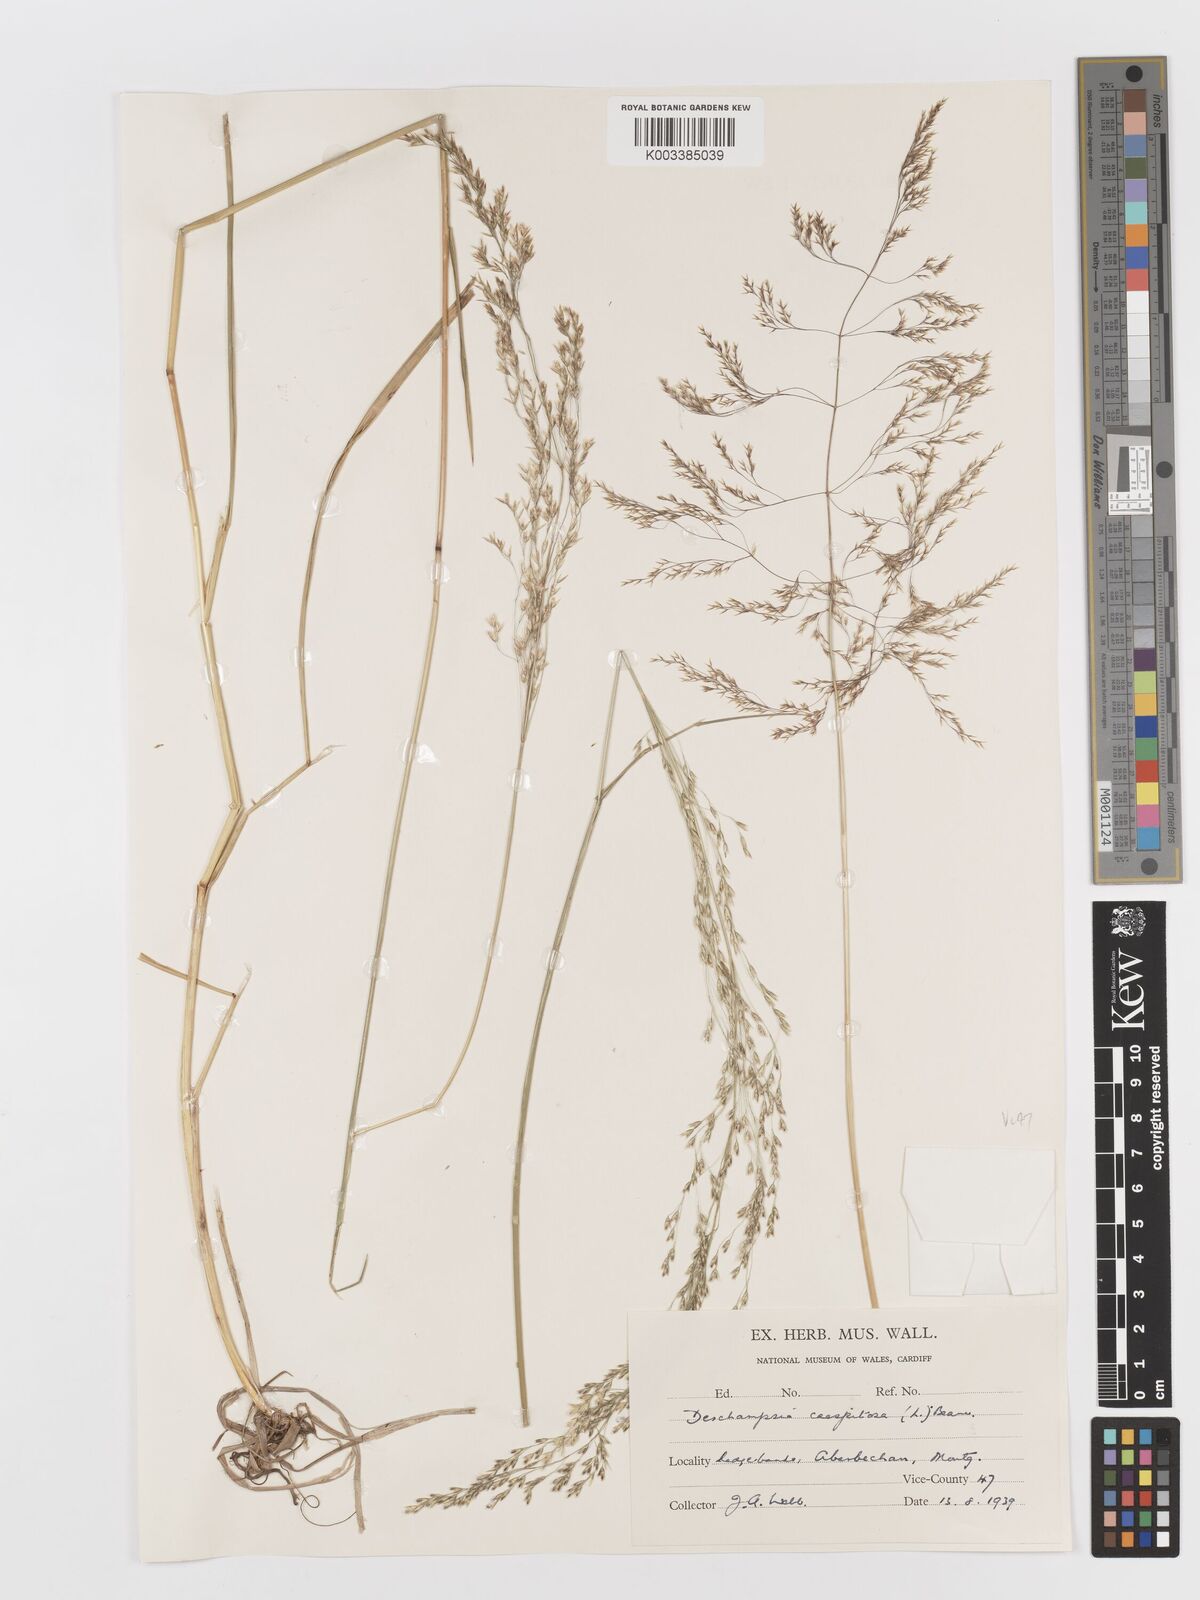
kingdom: Plantae
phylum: Tracheophyta
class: Liliopsida
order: Poales
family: Poaceae
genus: Deschampsia
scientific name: Deschampsia cespitosa
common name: Tufted hair-grass
